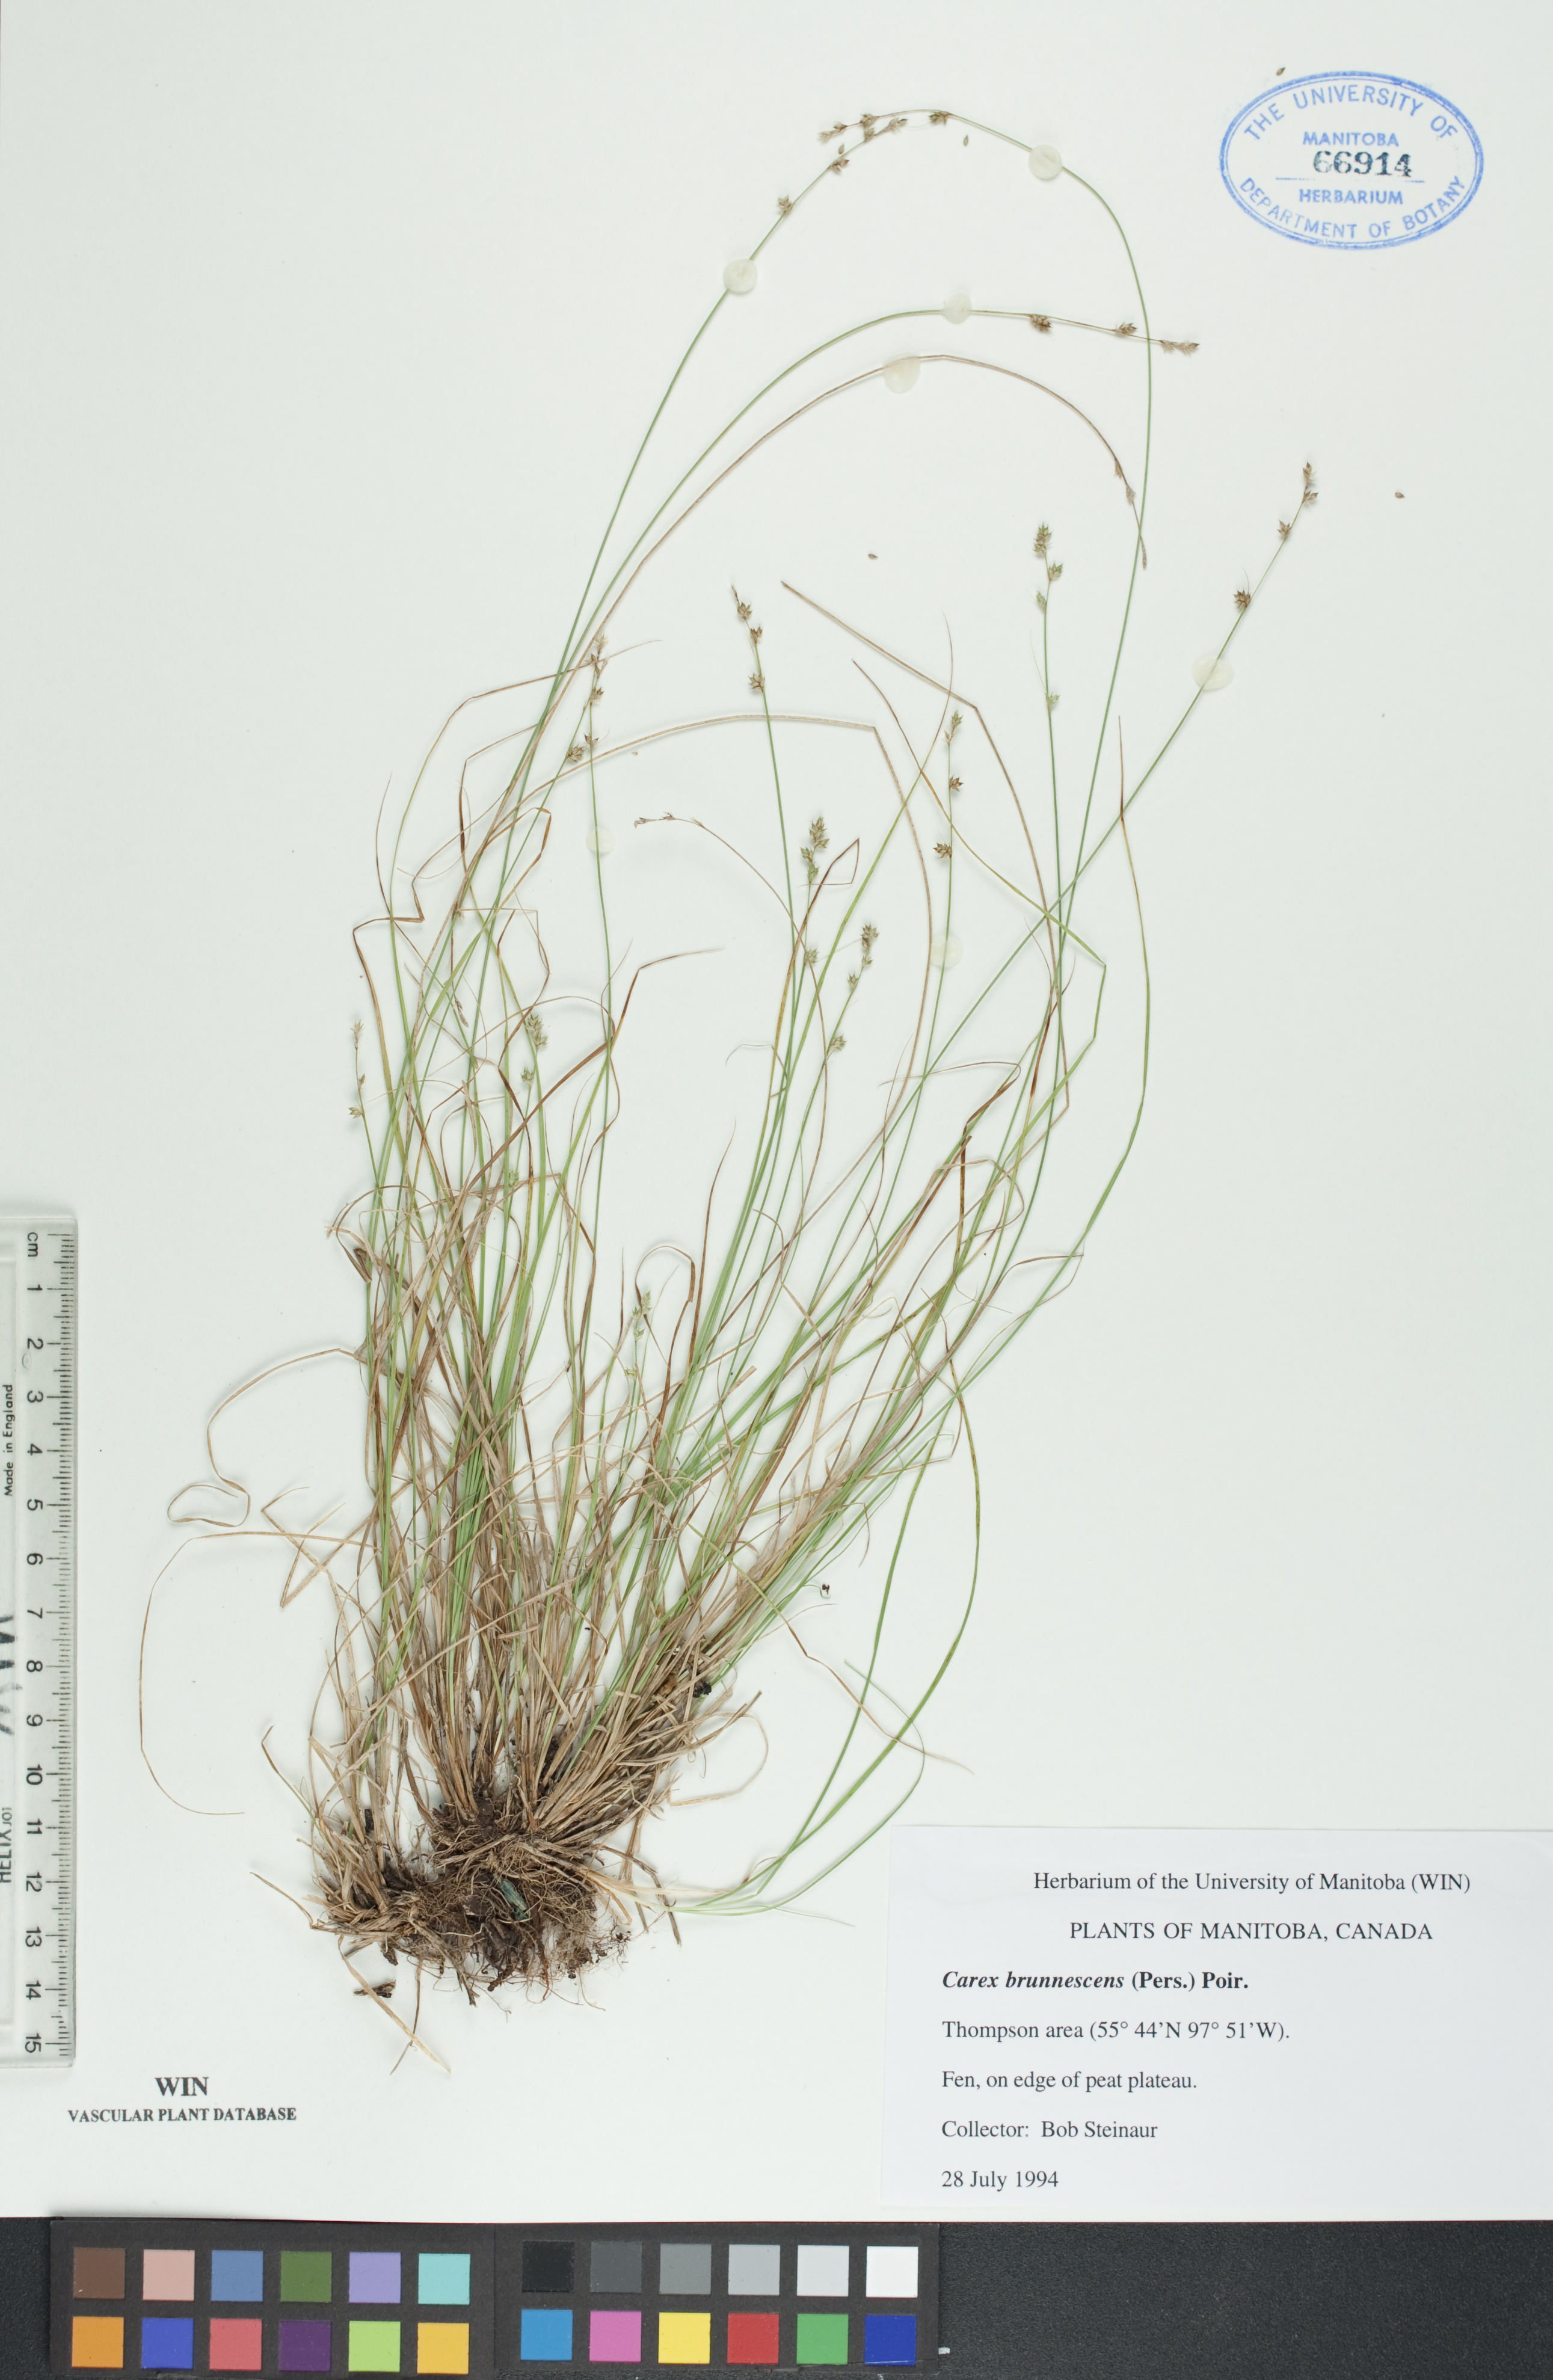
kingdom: Plantae
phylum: Tracheophyta
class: Liliopsida
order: Poales
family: Cyperaceae
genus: Carex
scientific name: Carex brunnescens
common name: Brown sedge
